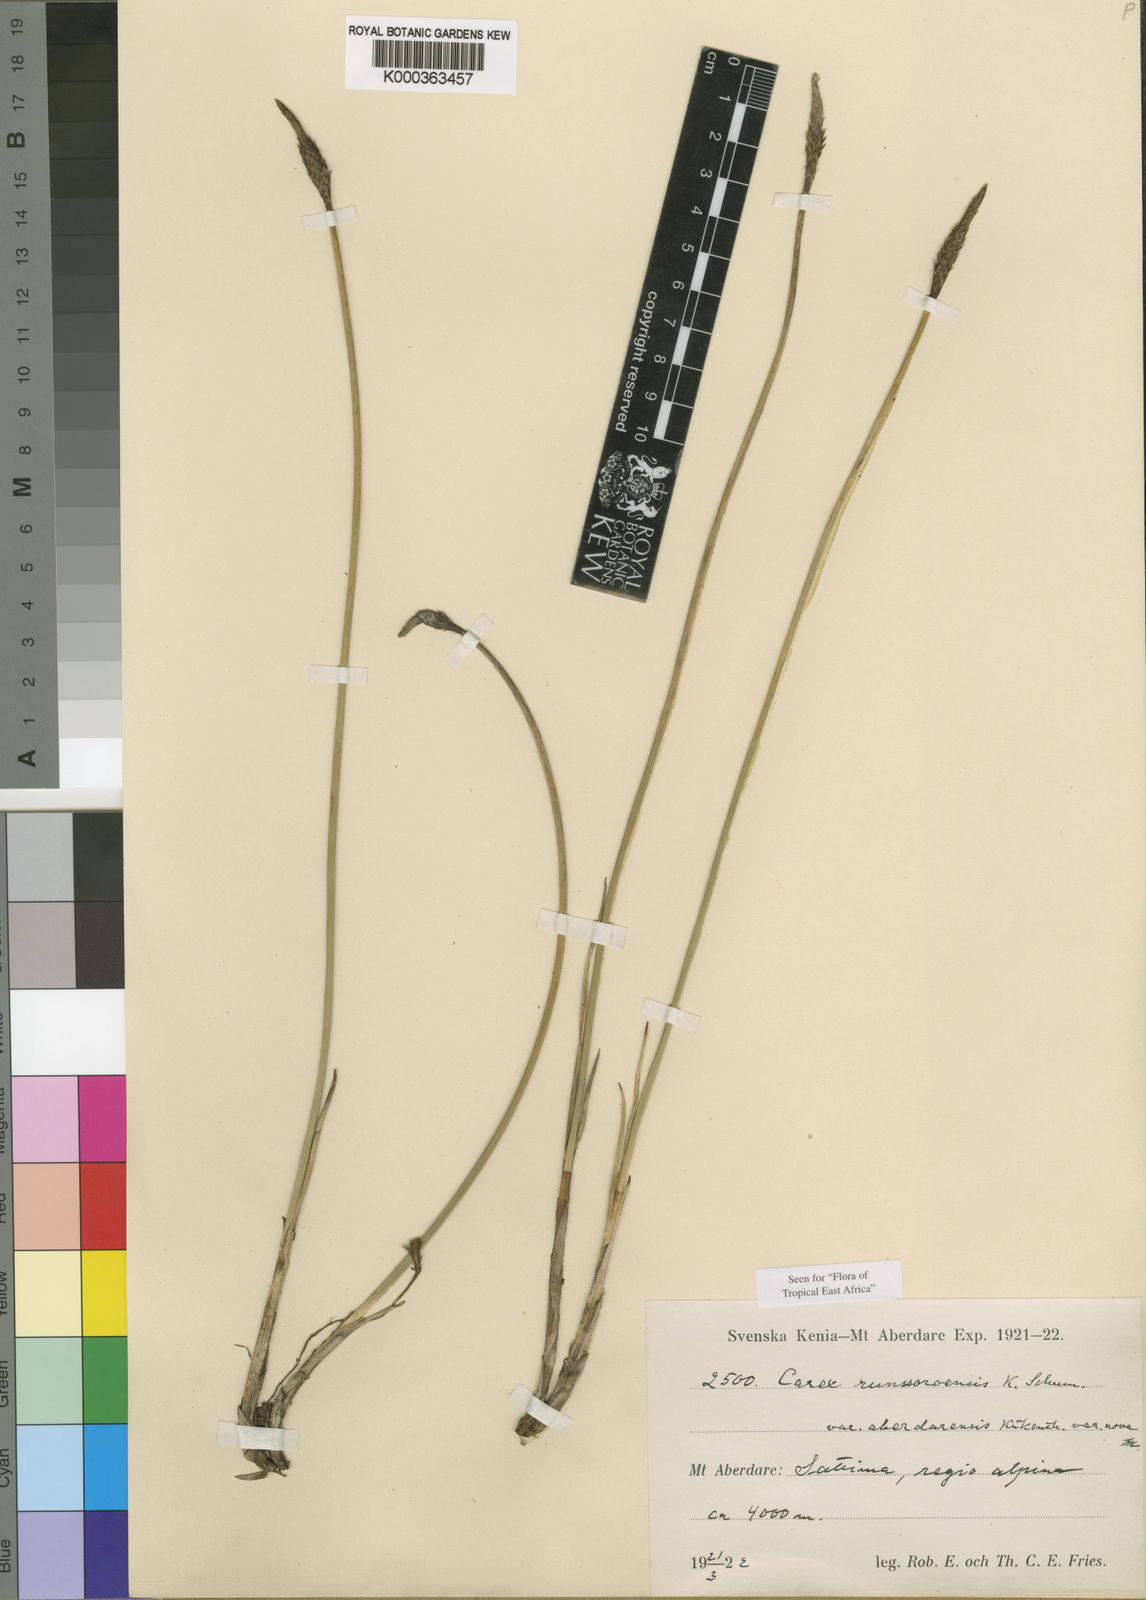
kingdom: Plantae
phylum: Tracheophyta
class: Liliopsida
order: Poales
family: Cyperaceae
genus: Carex
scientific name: Carex runssoroensis
